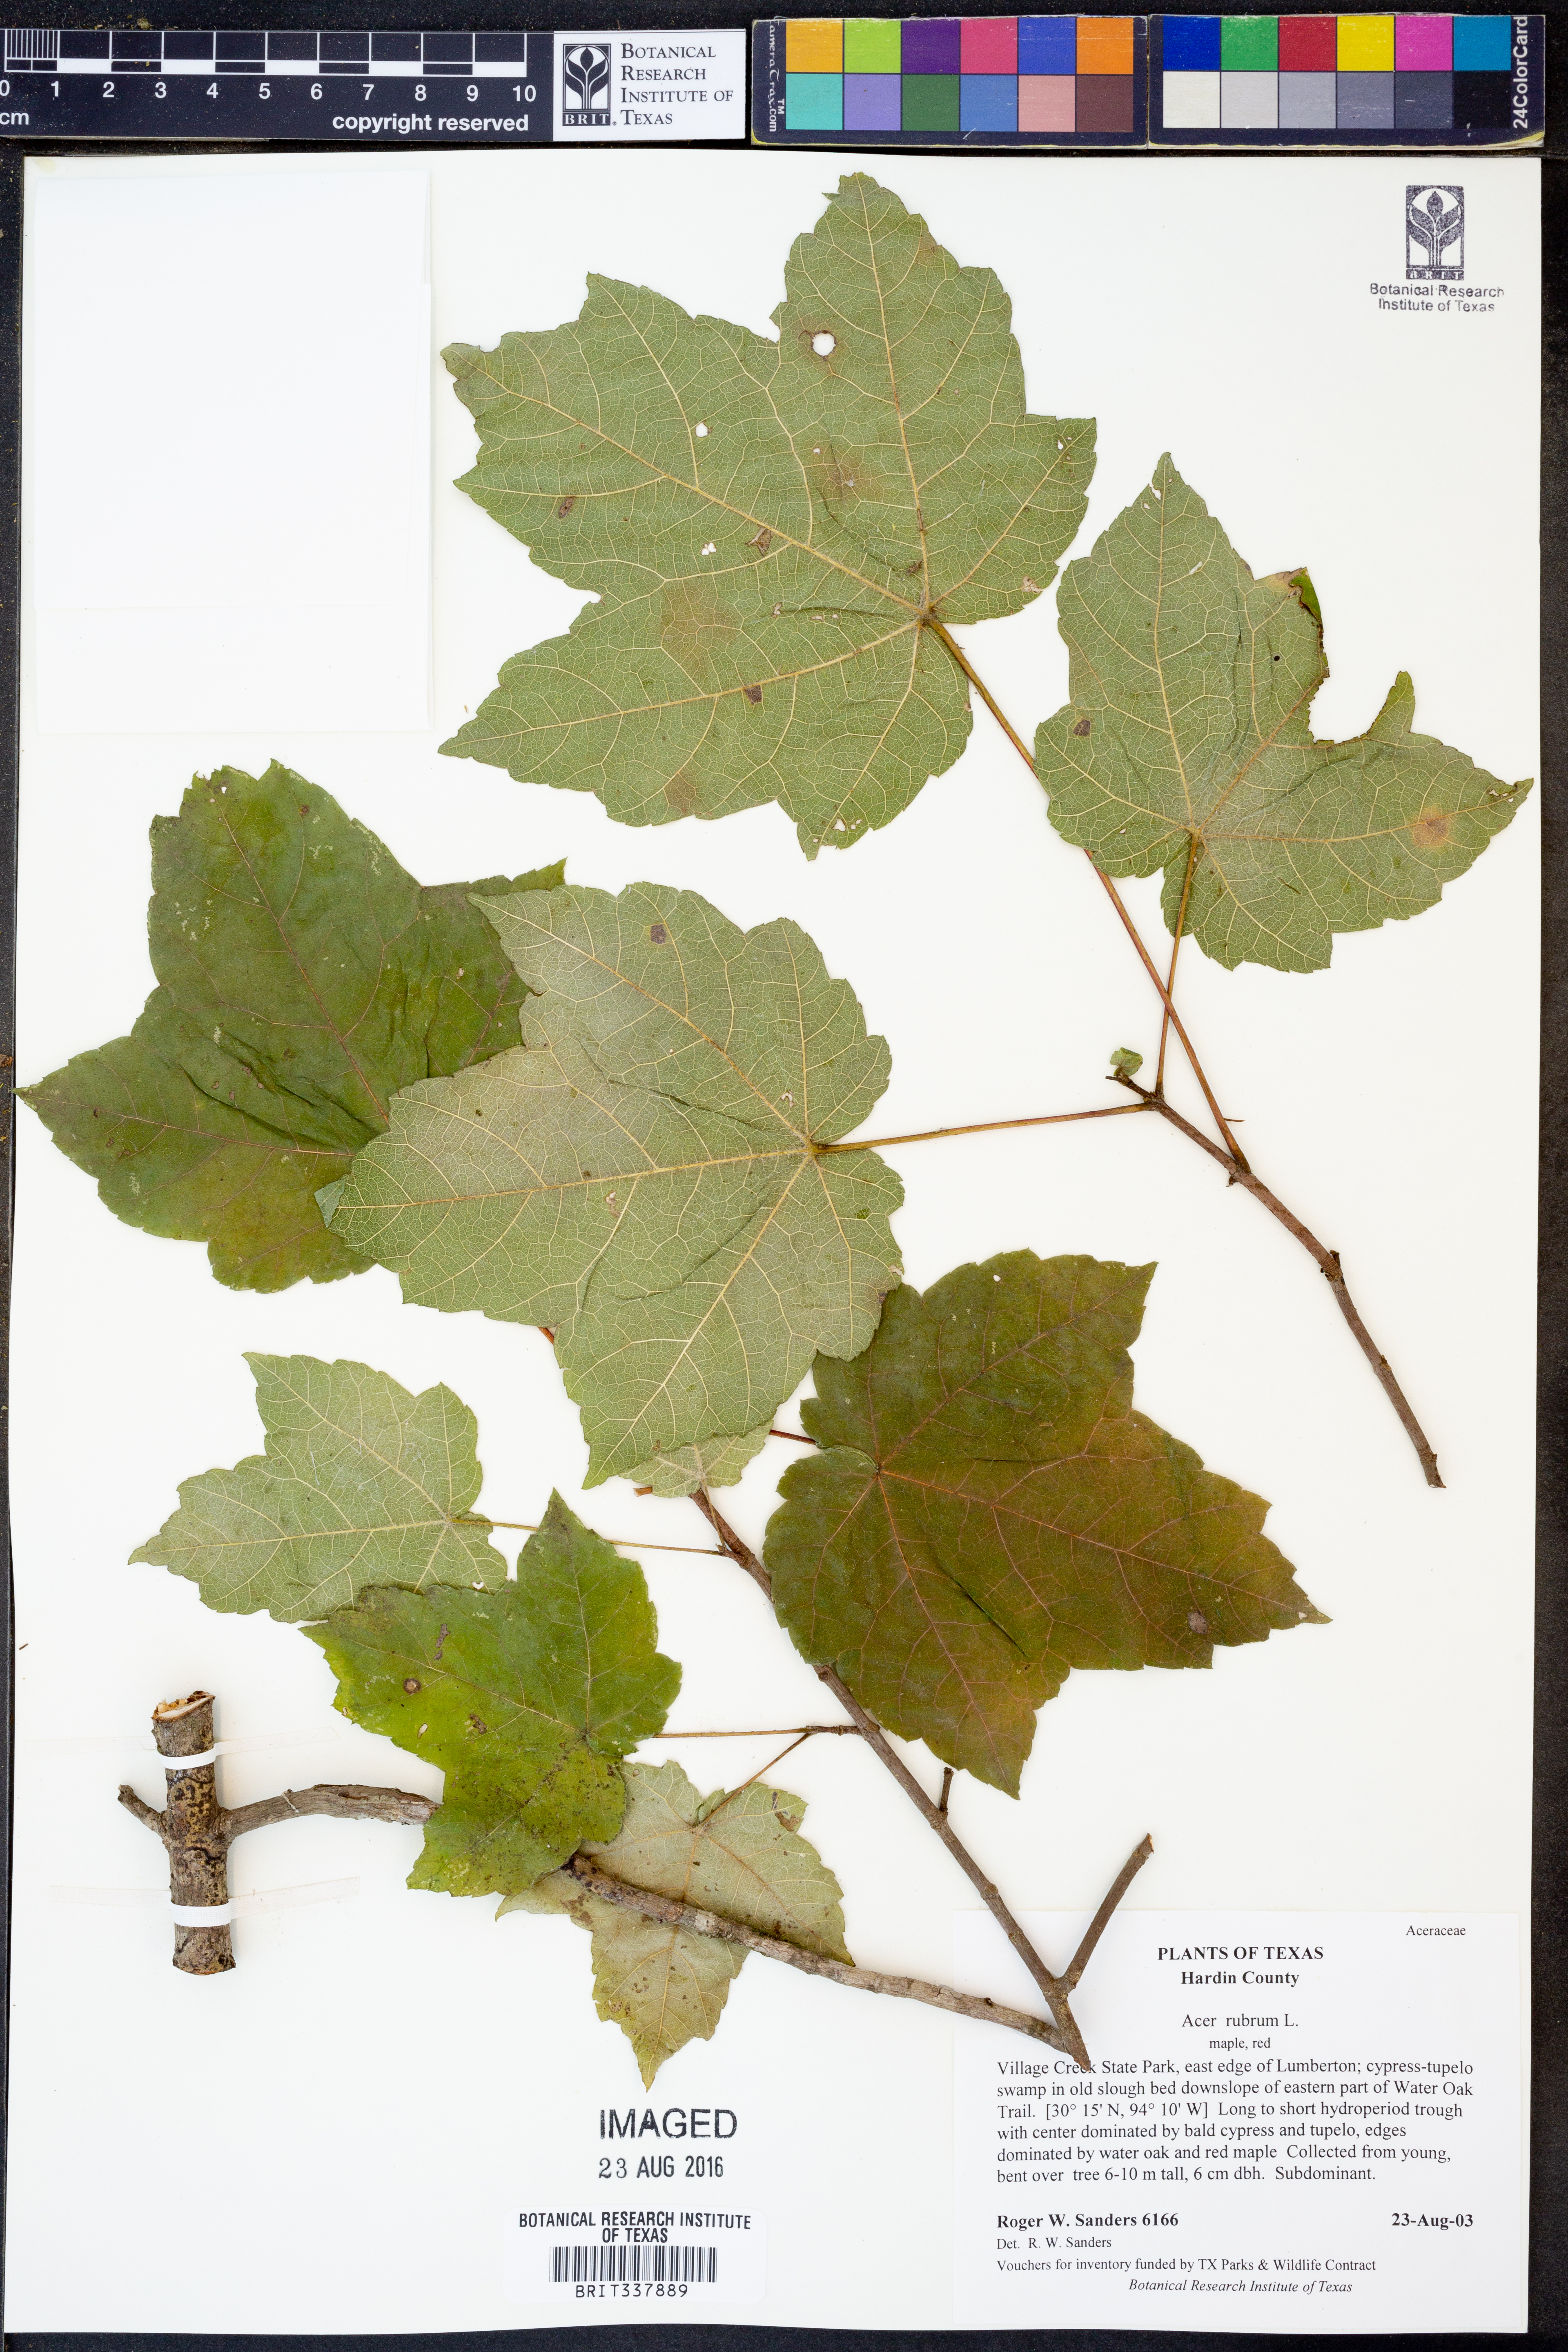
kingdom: Plantae
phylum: Tracheophyta
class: Magnoliopsida
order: Sapindales
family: Sapindaceae
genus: Acer
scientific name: Acer rubrum
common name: Red maple
